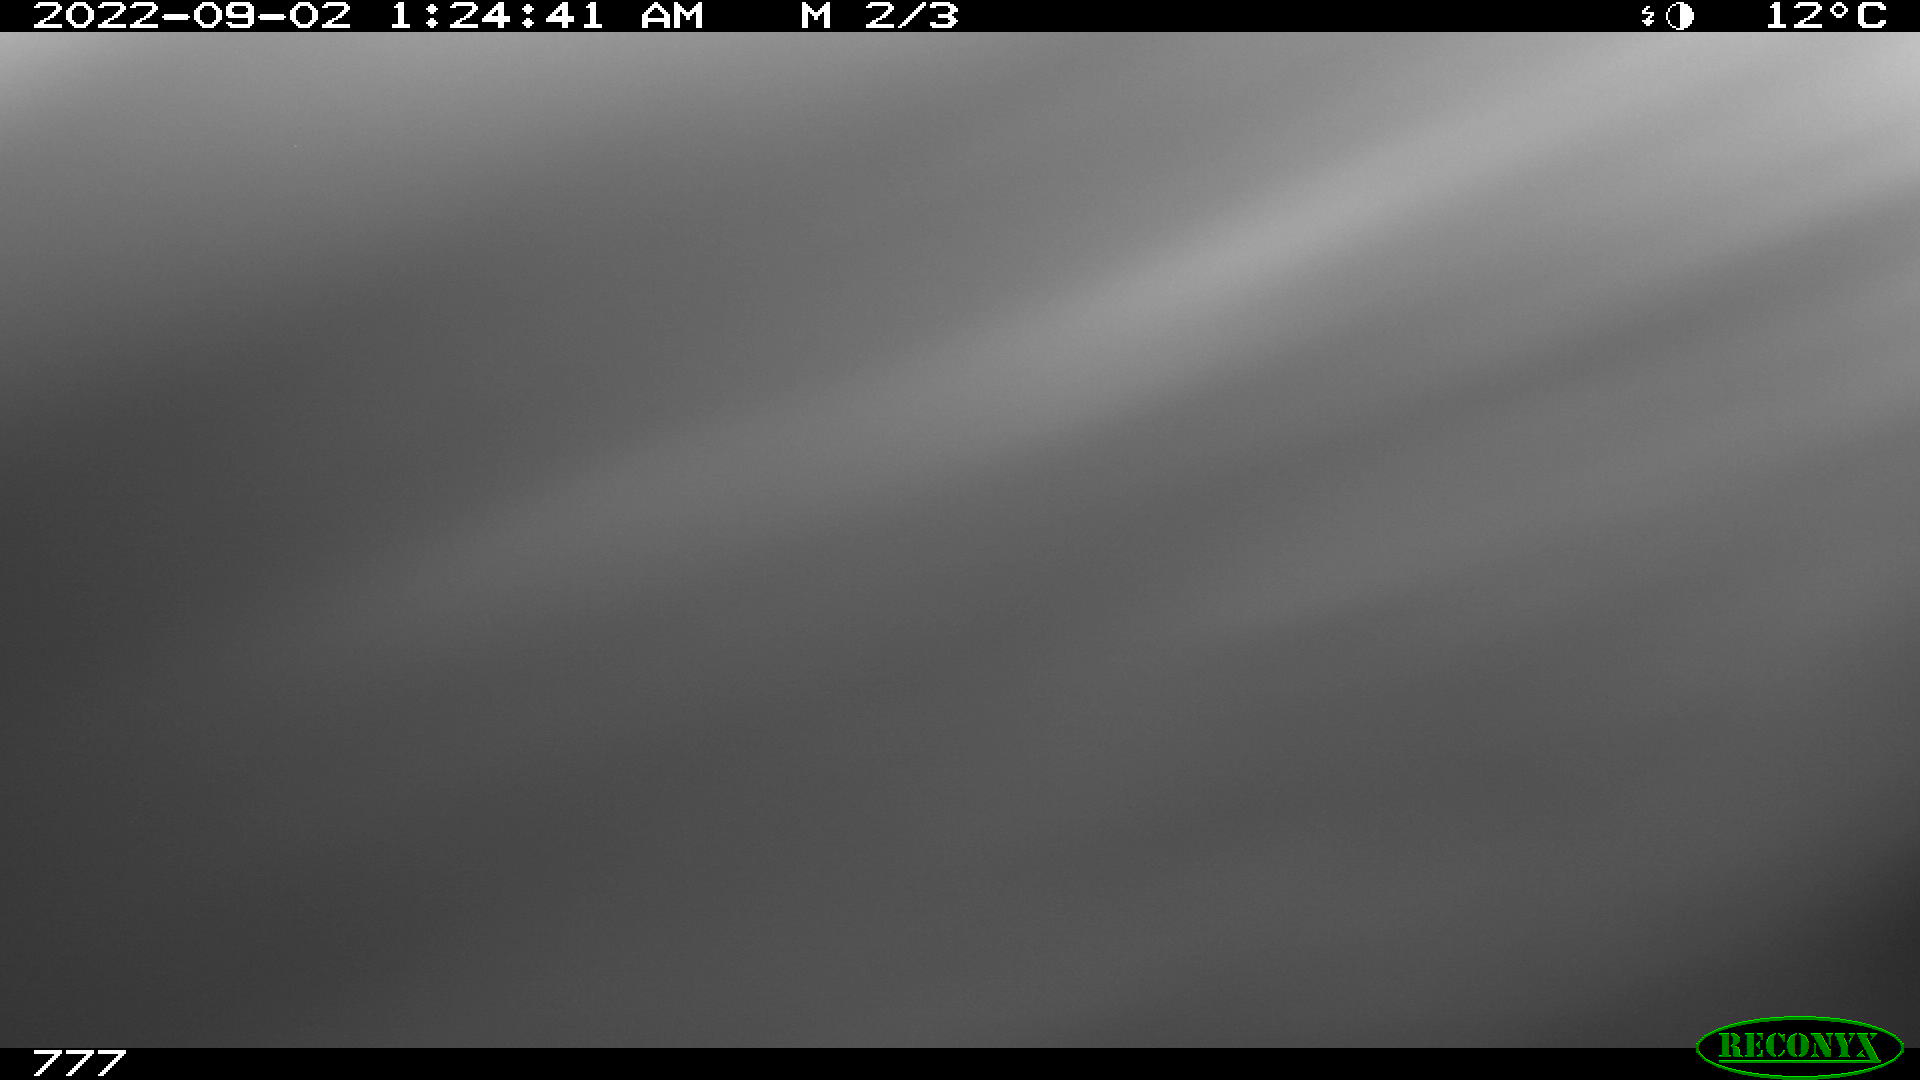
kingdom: Animalia
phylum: Chordata
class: Mammalia
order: Artiodactyla
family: Bovidae
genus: Bos
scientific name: Bos taurus
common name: Domesticated cattle
